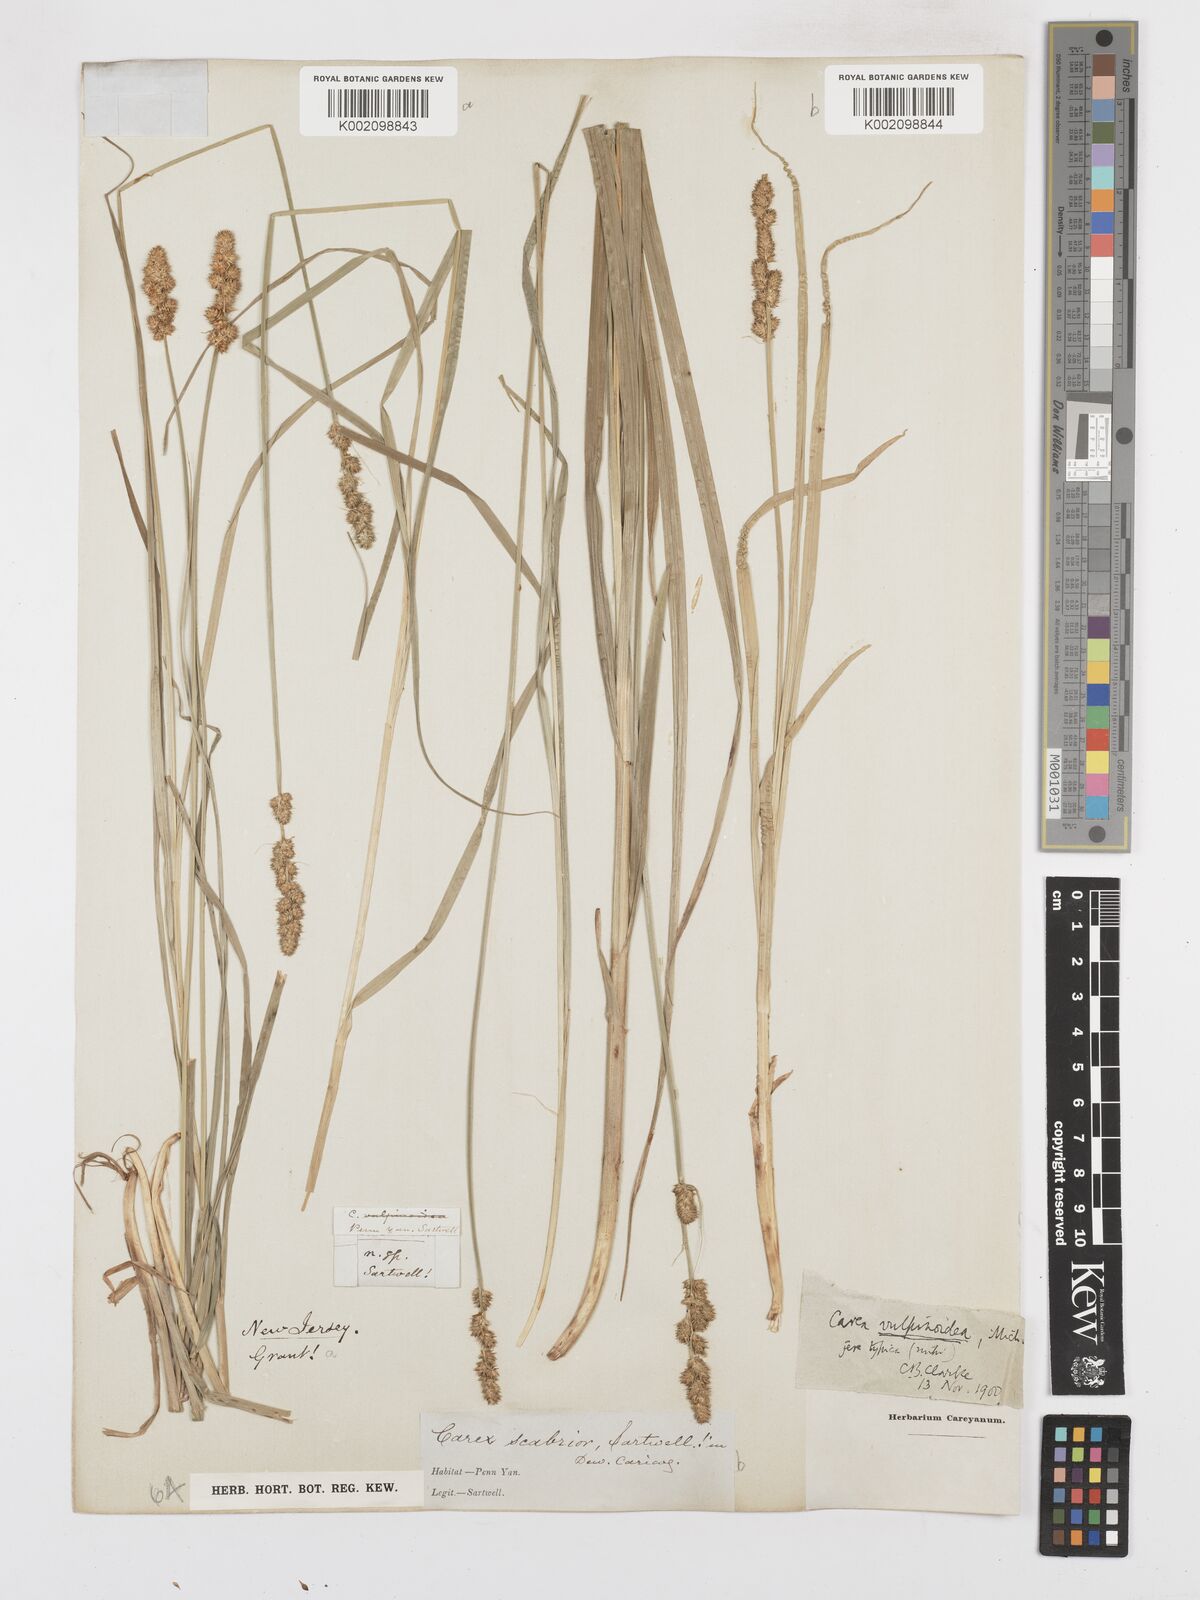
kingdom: Plantae
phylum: Tracheophyta
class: Liliopsida
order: Poales
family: Cyperaceae
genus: Carex
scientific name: Carex annectens
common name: Large fox sedge
